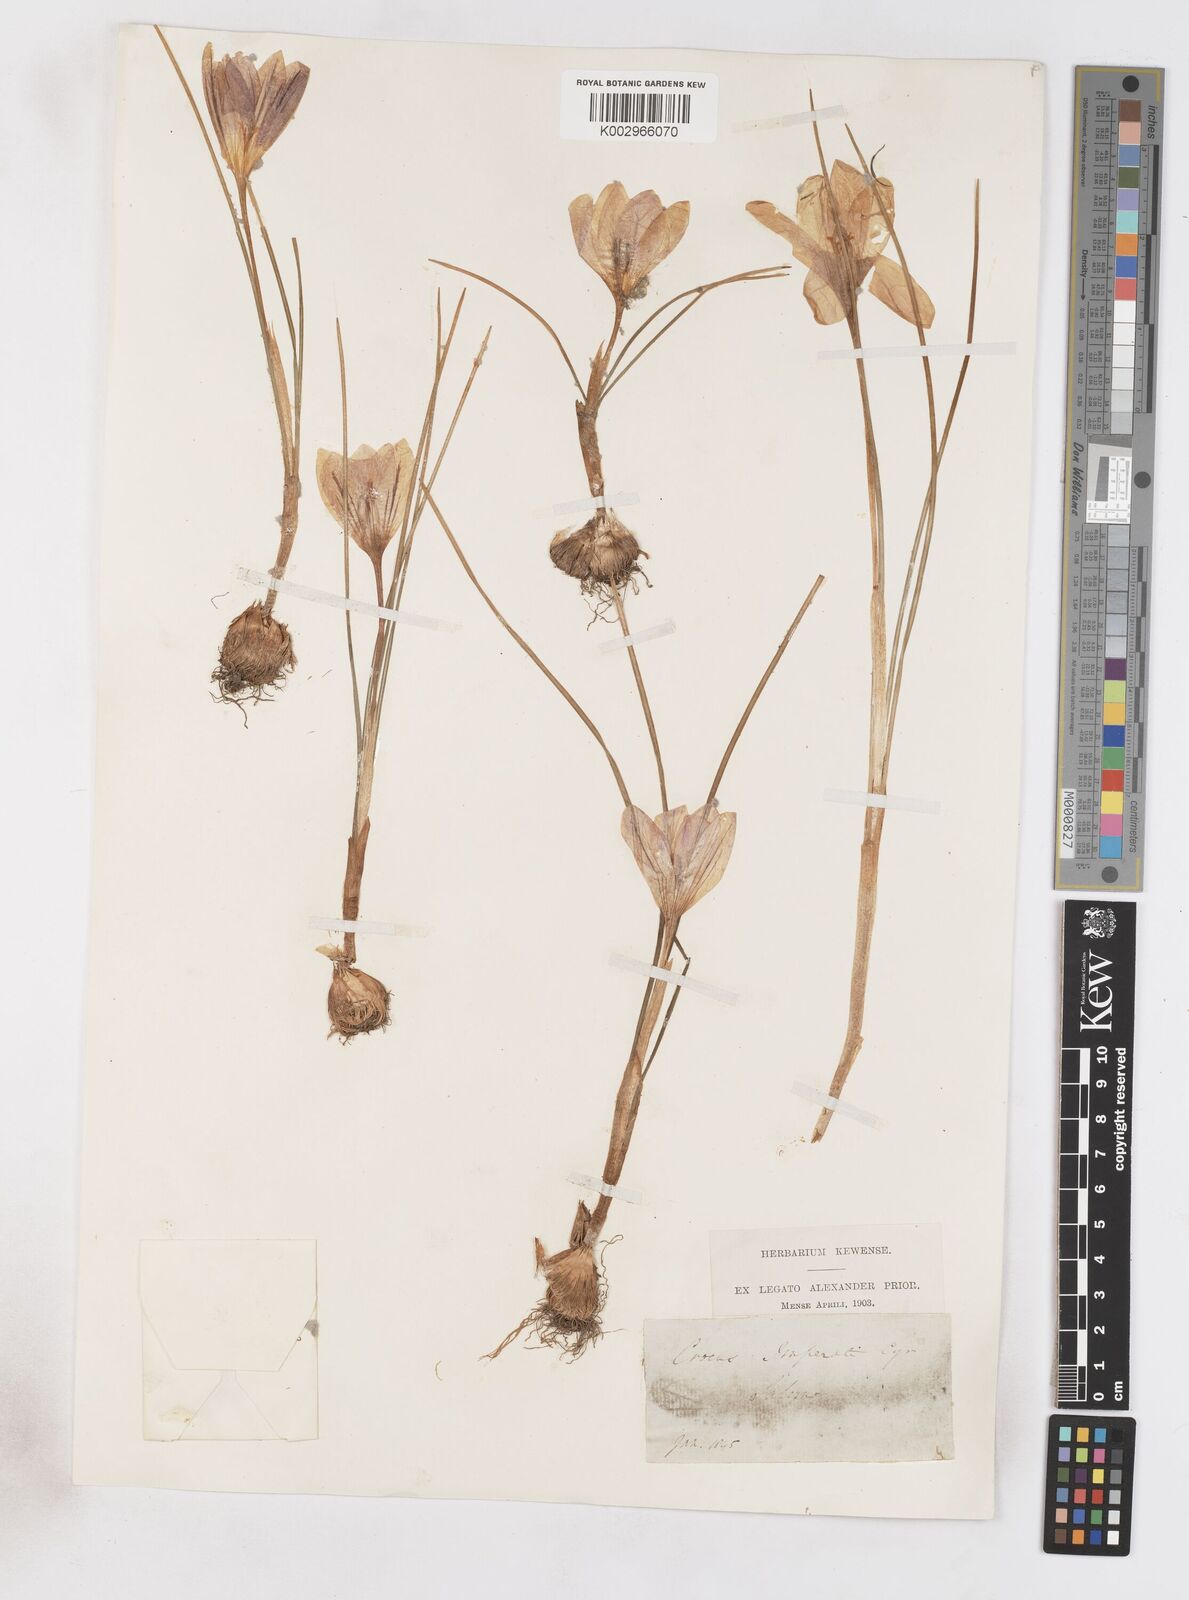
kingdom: Plantae
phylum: Tracheophyta
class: Liliopsida
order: Asparagales
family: Iridaceae
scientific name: Iridaceae
